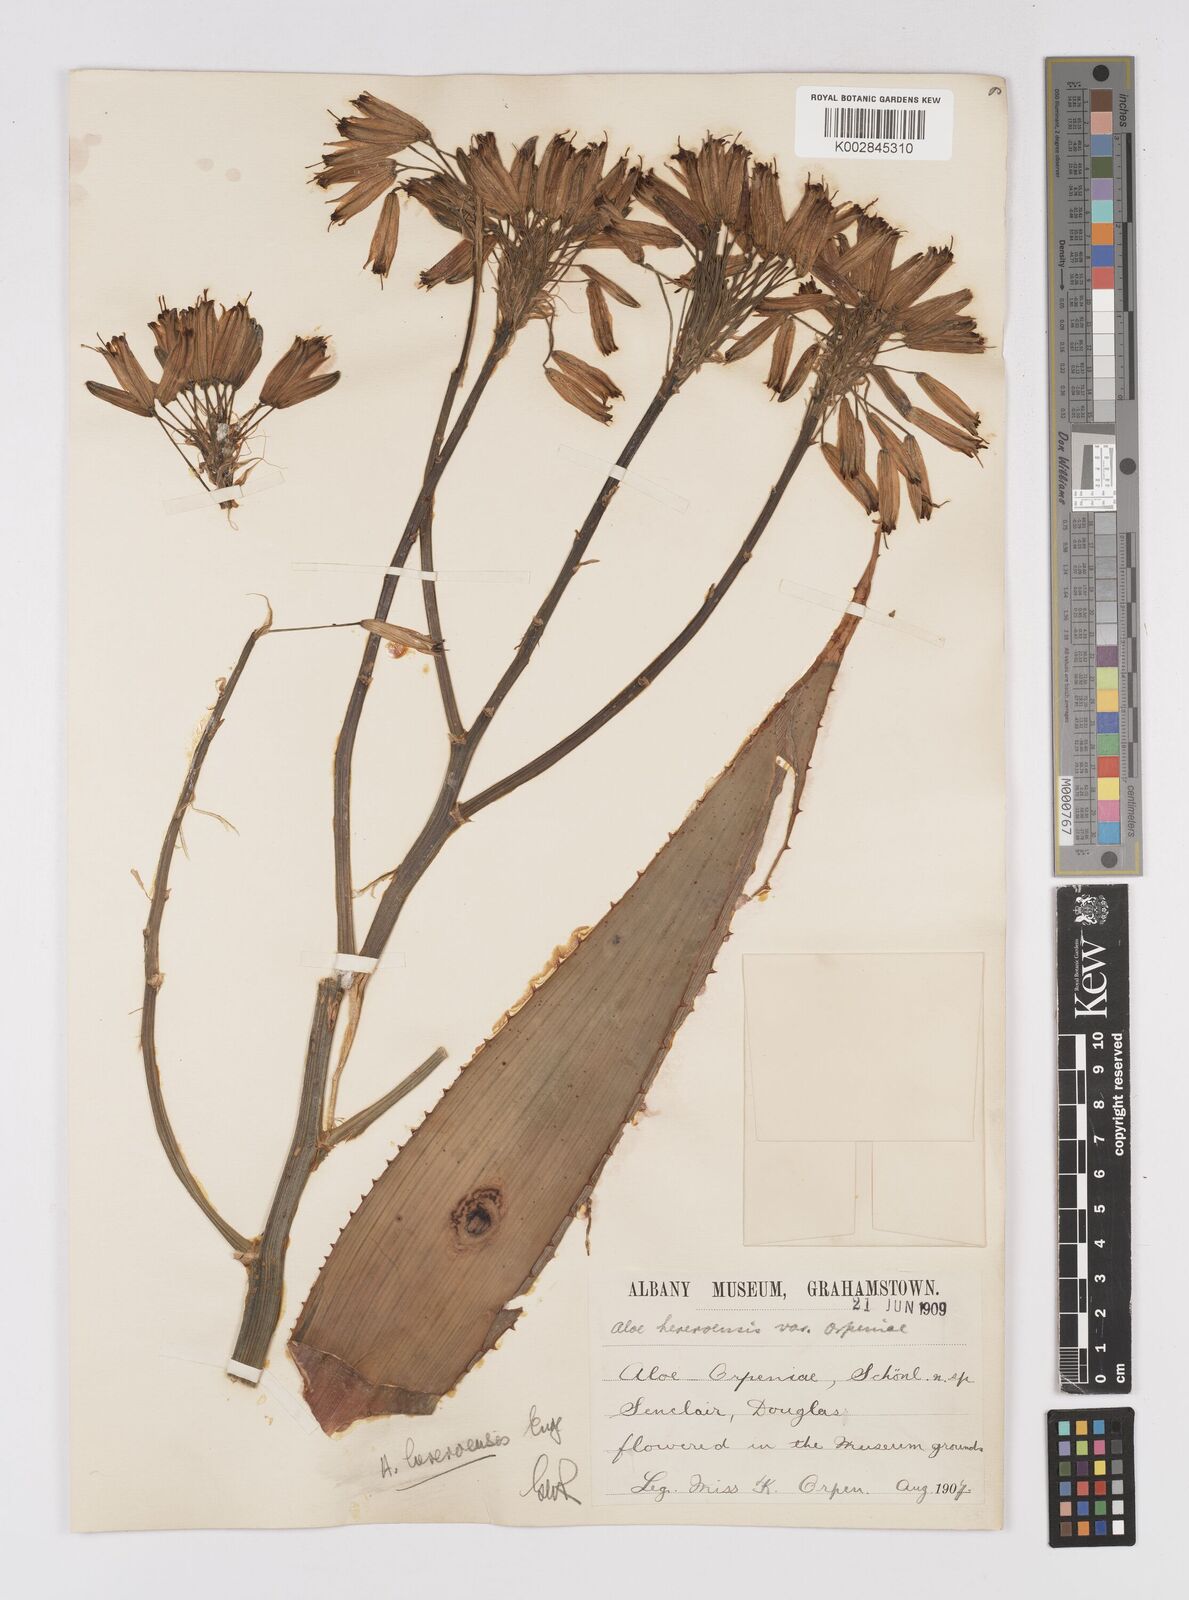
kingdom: Plantae
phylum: Tracheophyta
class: Liliopsida
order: Asparagales
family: Asphodelaceae
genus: Aloe
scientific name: Aloe hereroensis
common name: Herero aloe
